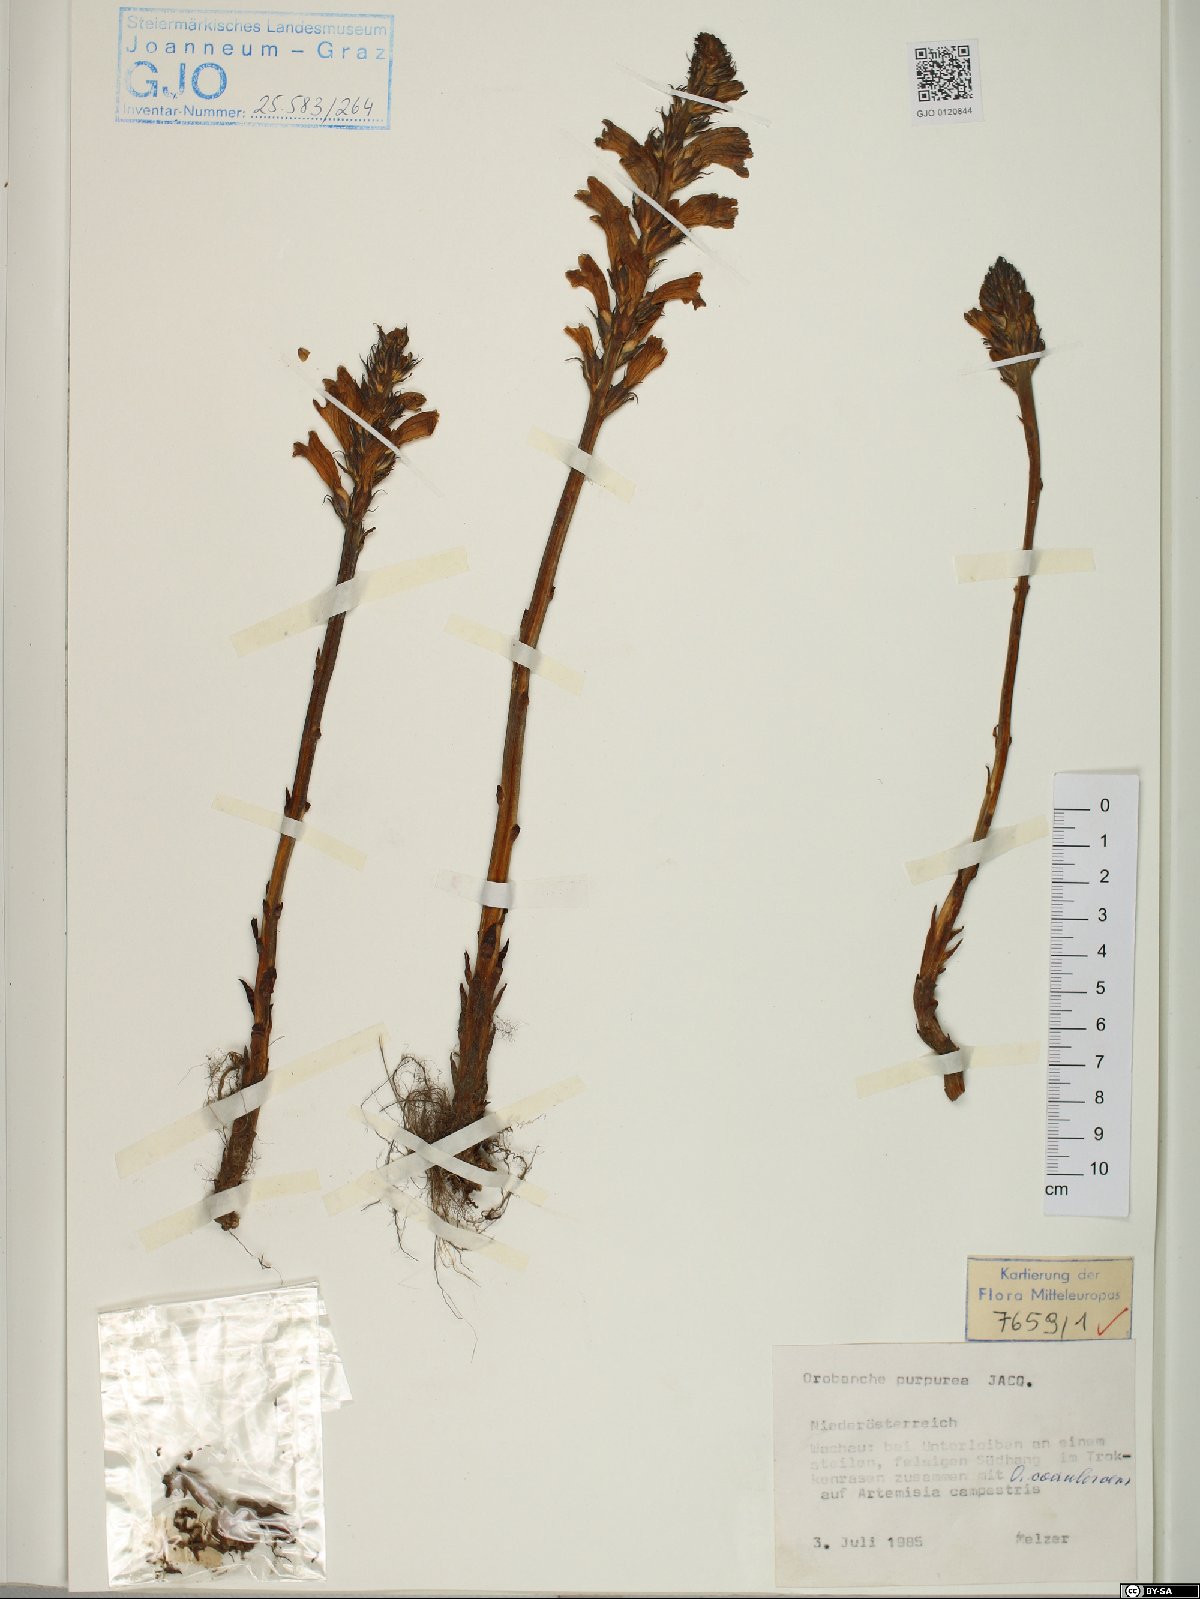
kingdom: Plantae
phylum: Tracheophyta
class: Magnoliopsida
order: Lamiales
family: Orobanchaceae
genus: Phelipanche
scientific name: Phelipanche purpurea
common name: Purple broomrape
